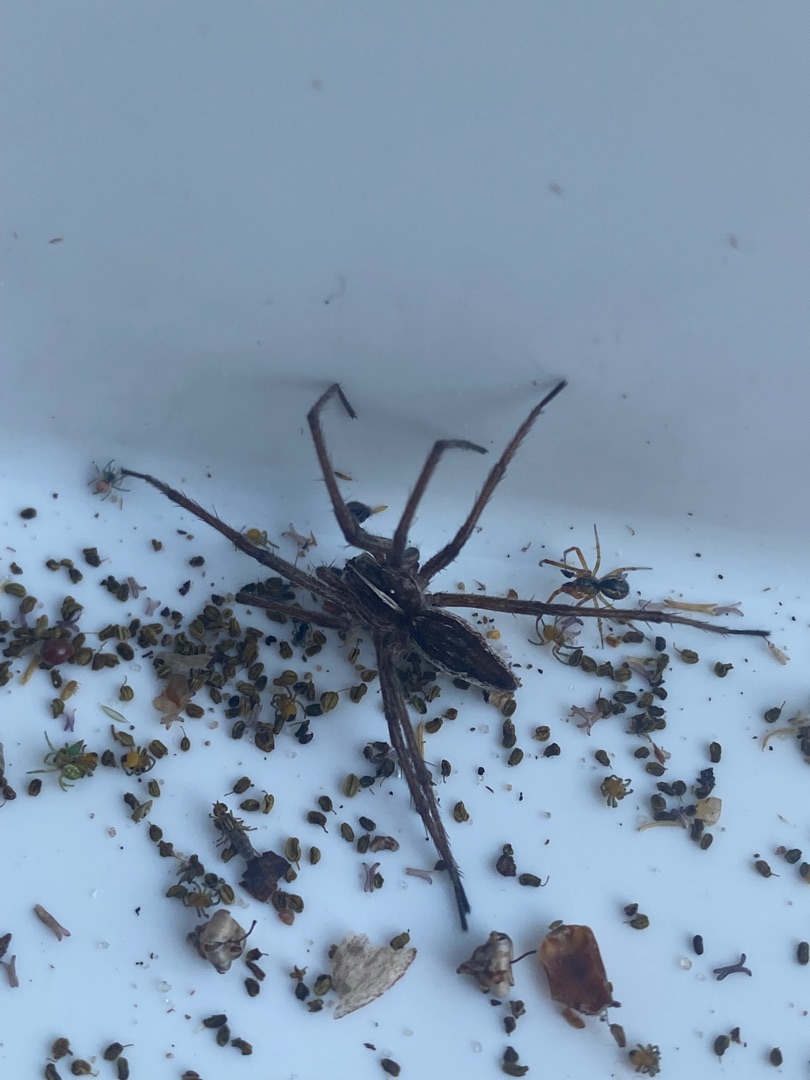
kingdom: Animalia
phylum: Arthropoda
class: Arachnida
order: Araneae
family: Pisauridae
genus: Pisaura
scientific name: Pisaura mirabilis
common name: Almindelig rovedderkop
